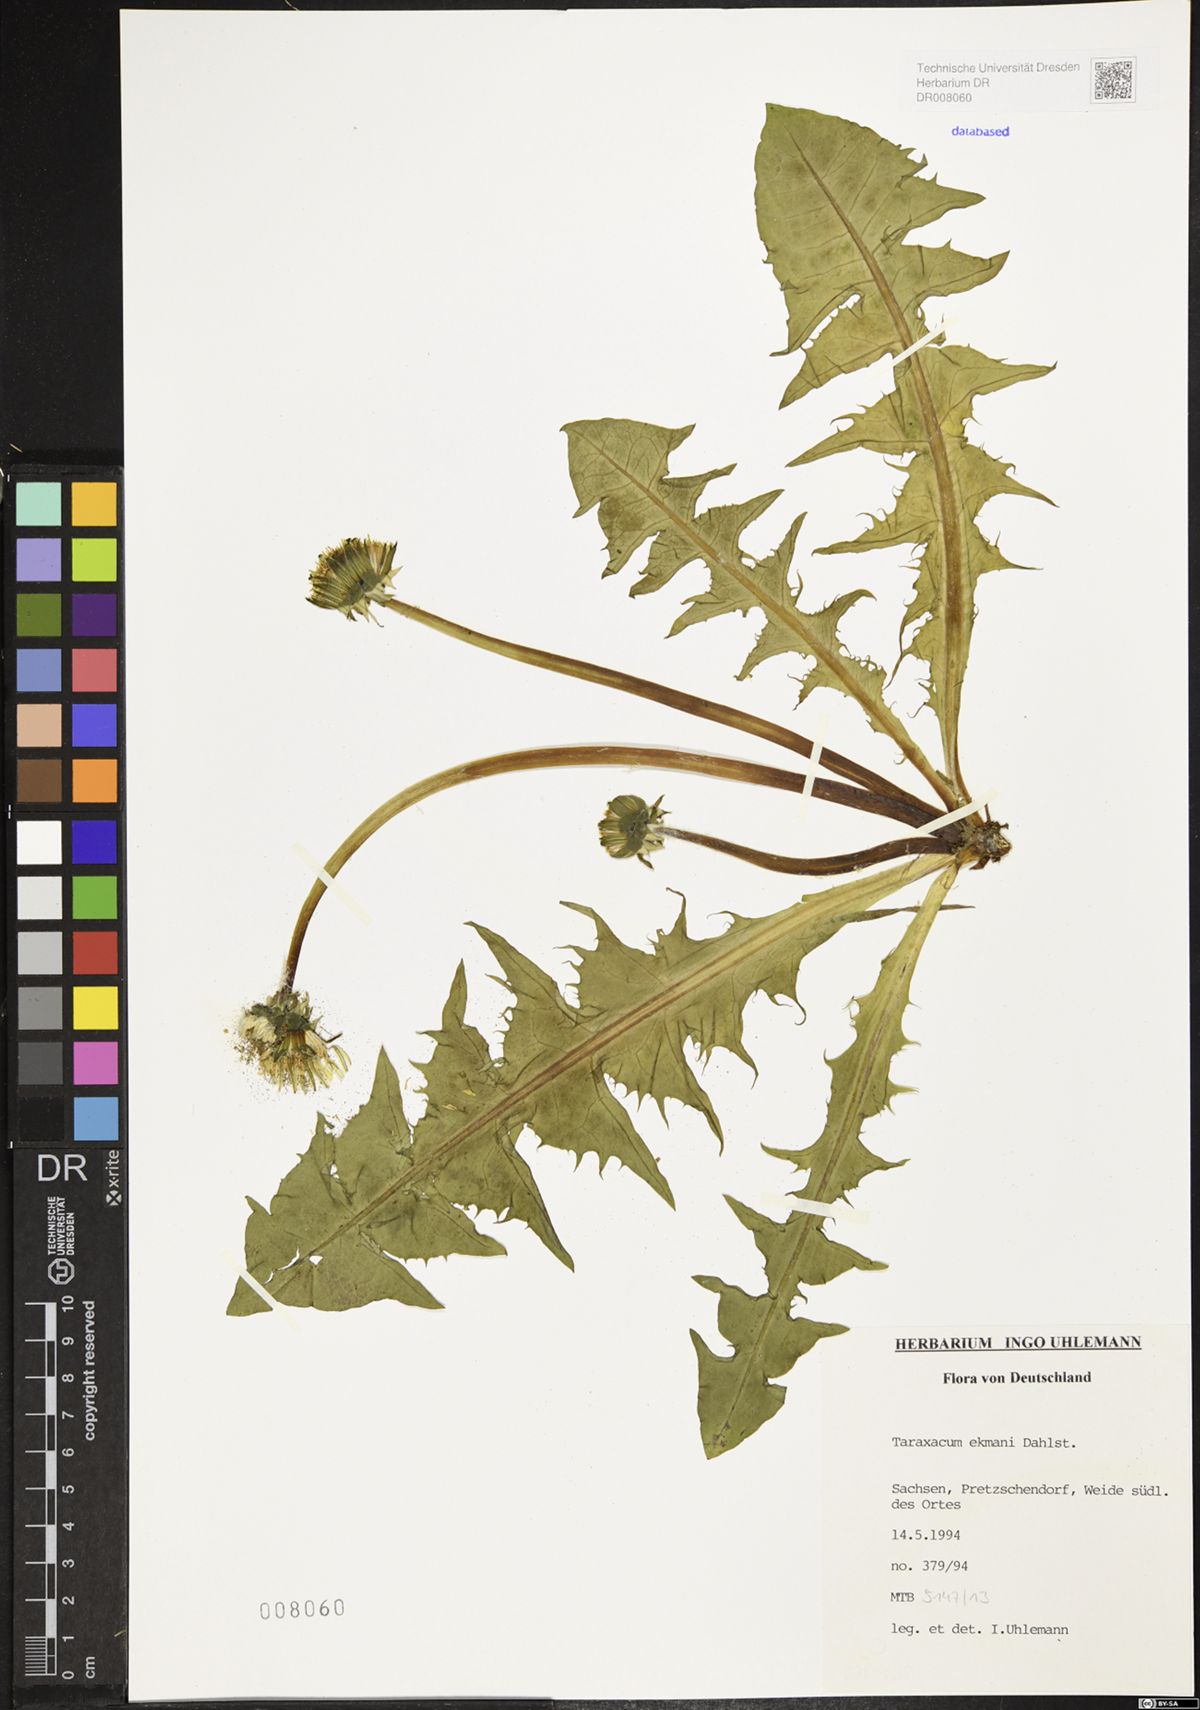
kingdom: Plantae
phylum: Tracheophyta
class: Magnoliopsida
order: Asterales
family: Asteraceae
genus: Taraxacum
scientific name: Taraxacum ekmanii
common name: Ekman's dandelion
